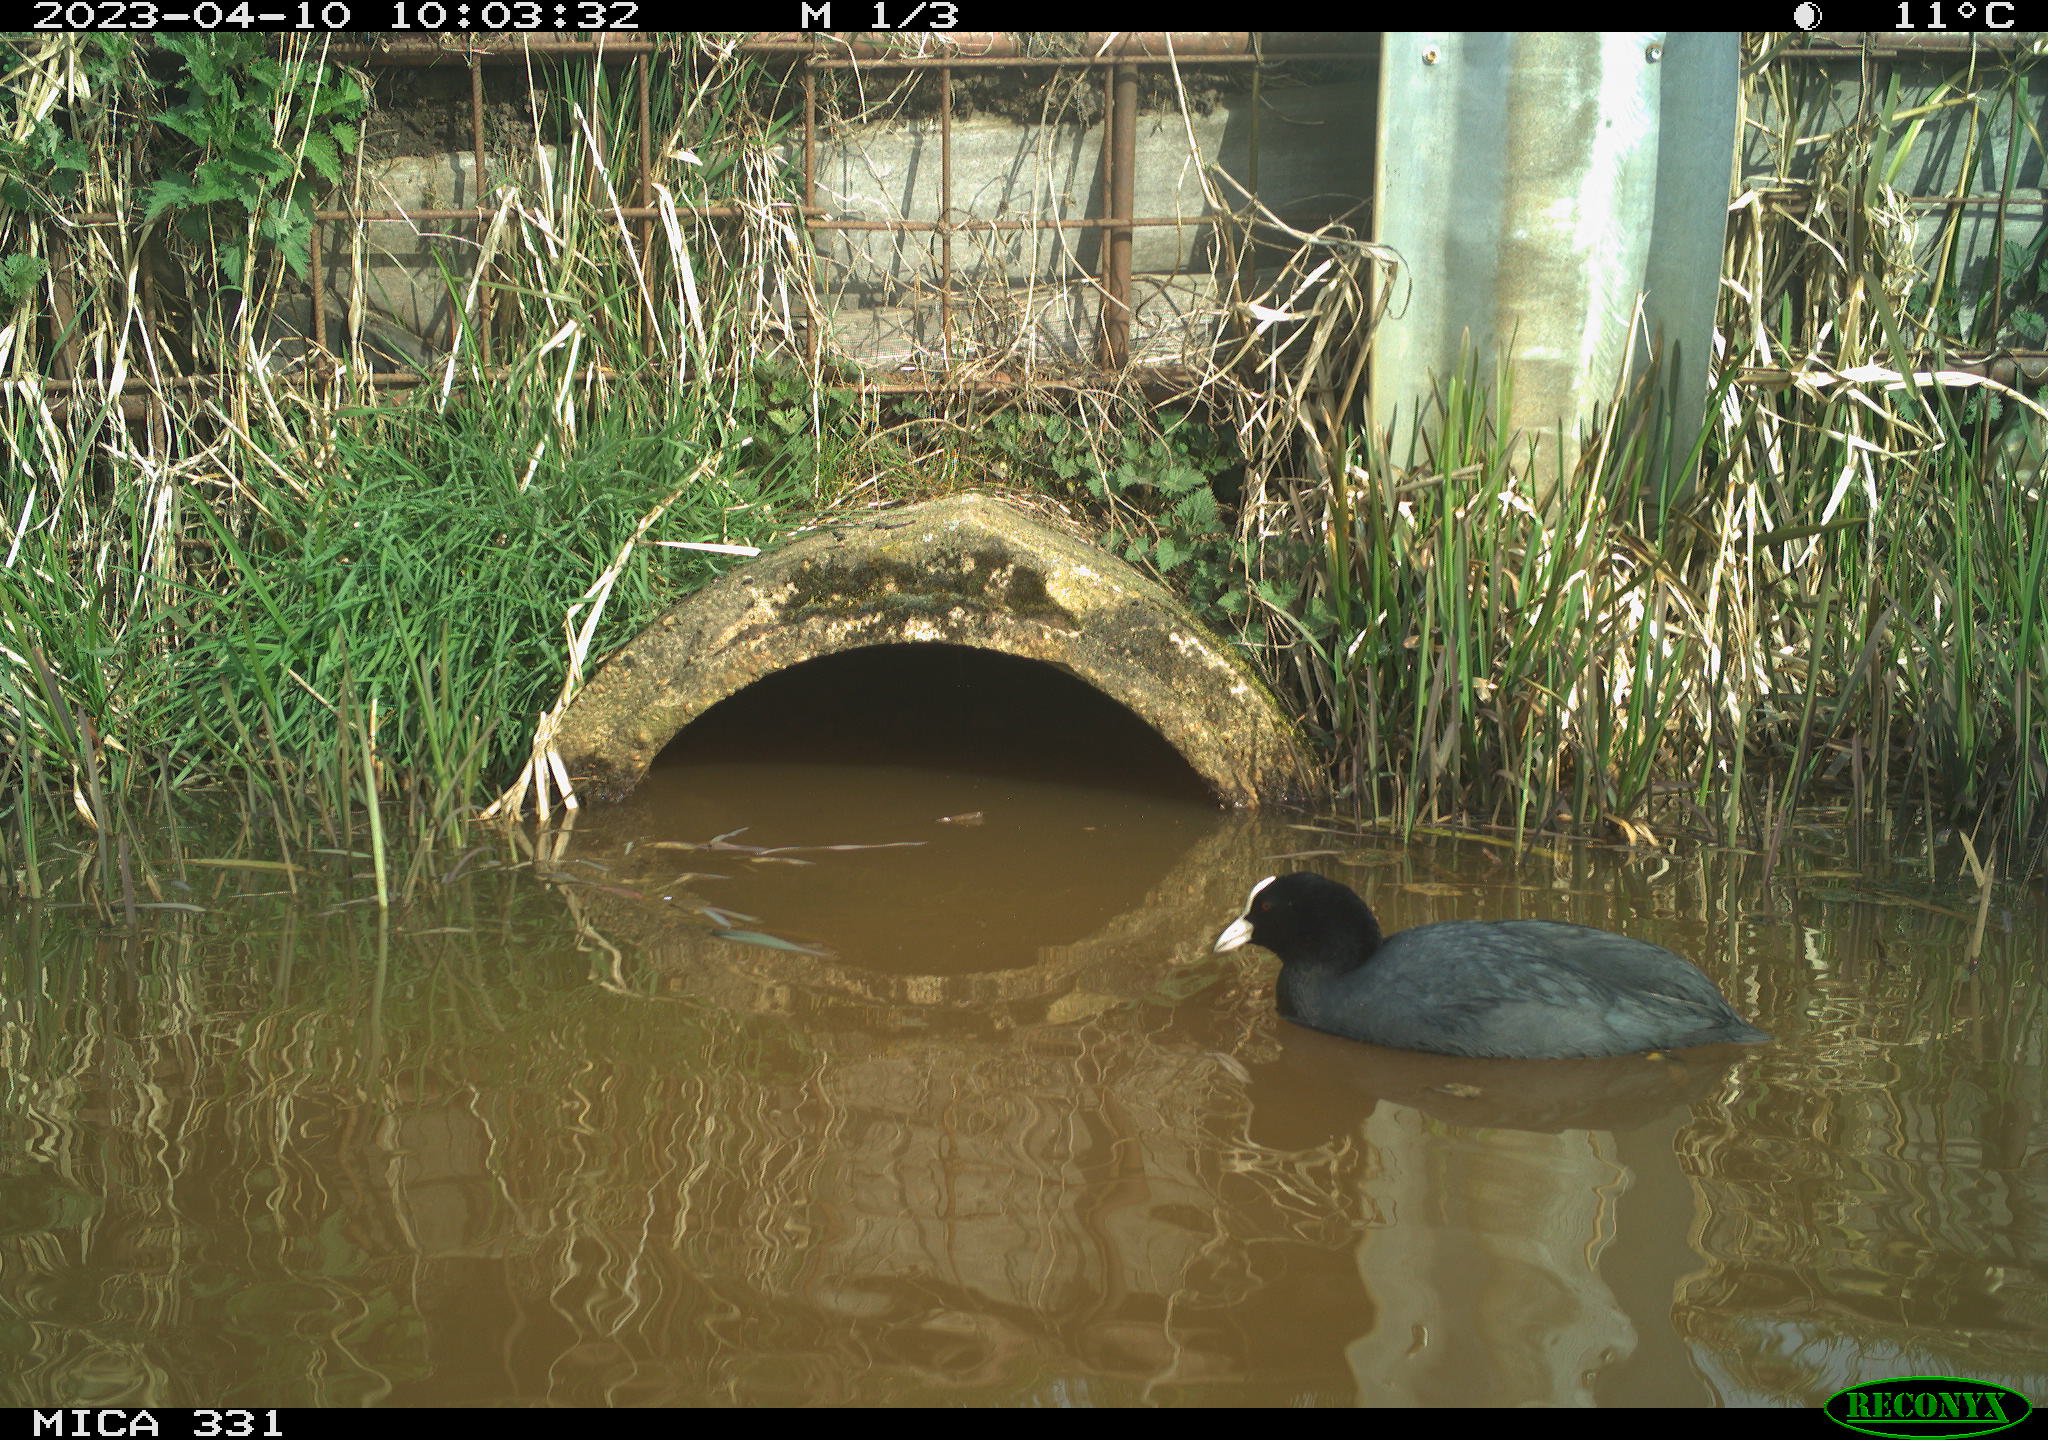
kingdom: Animalia
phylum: Chordata
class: Aves
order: Gruiformes
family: Rallidae
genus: Fulica
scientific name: Fulica atra
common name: Eurasian coot
